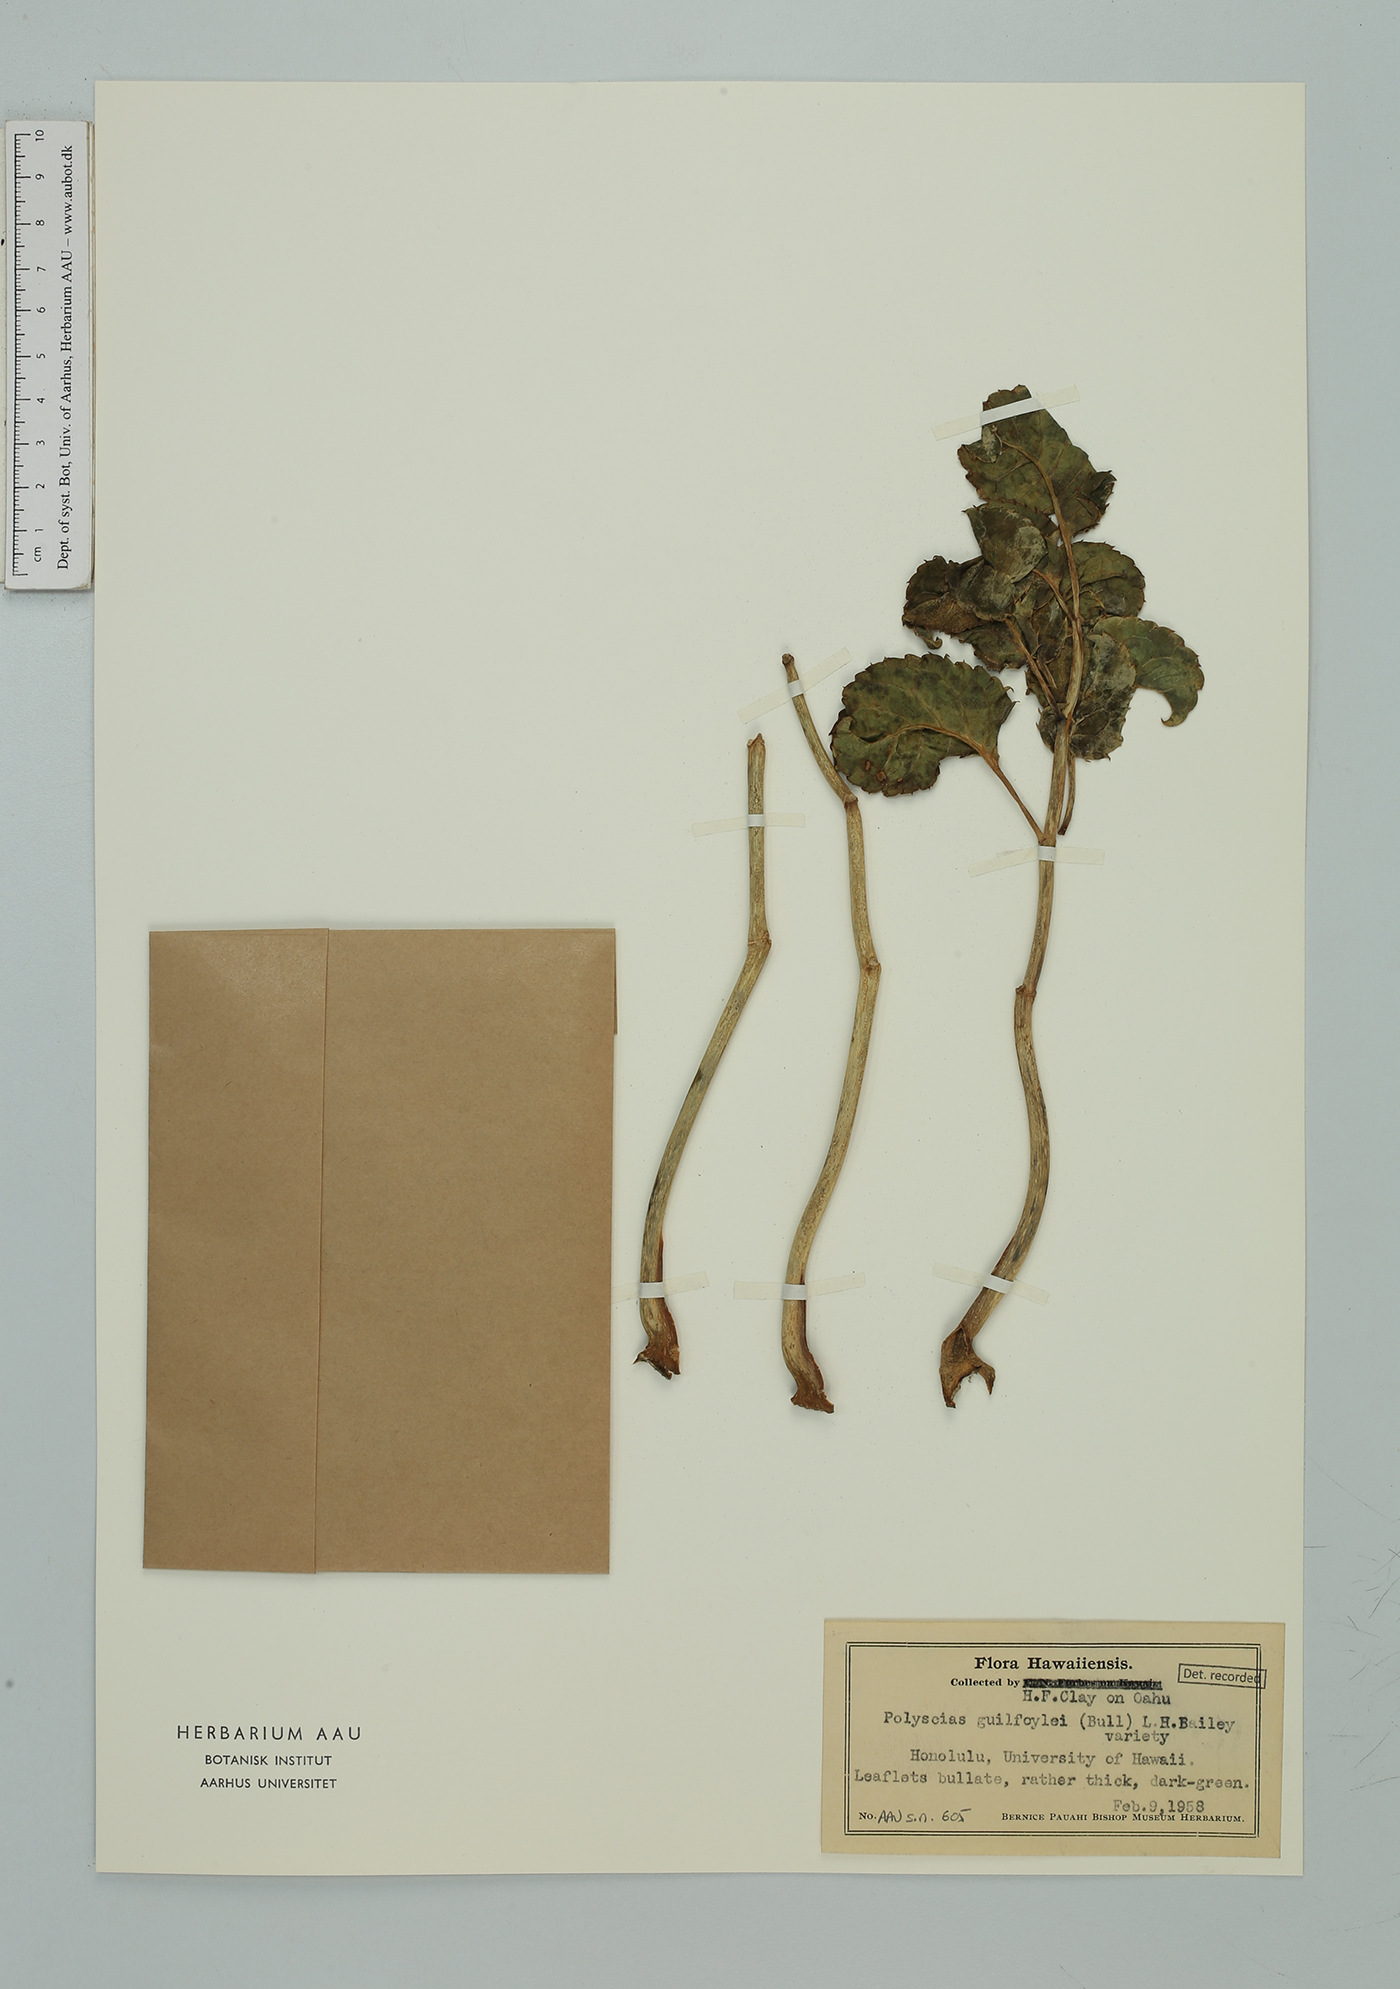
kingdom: Plantae
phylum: Tracheophyta
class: Magnoliopsida
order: Apiales
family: Araliaceae
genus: Polyscias
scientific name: Polyscias guilfoylei
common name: Geranium aralia
